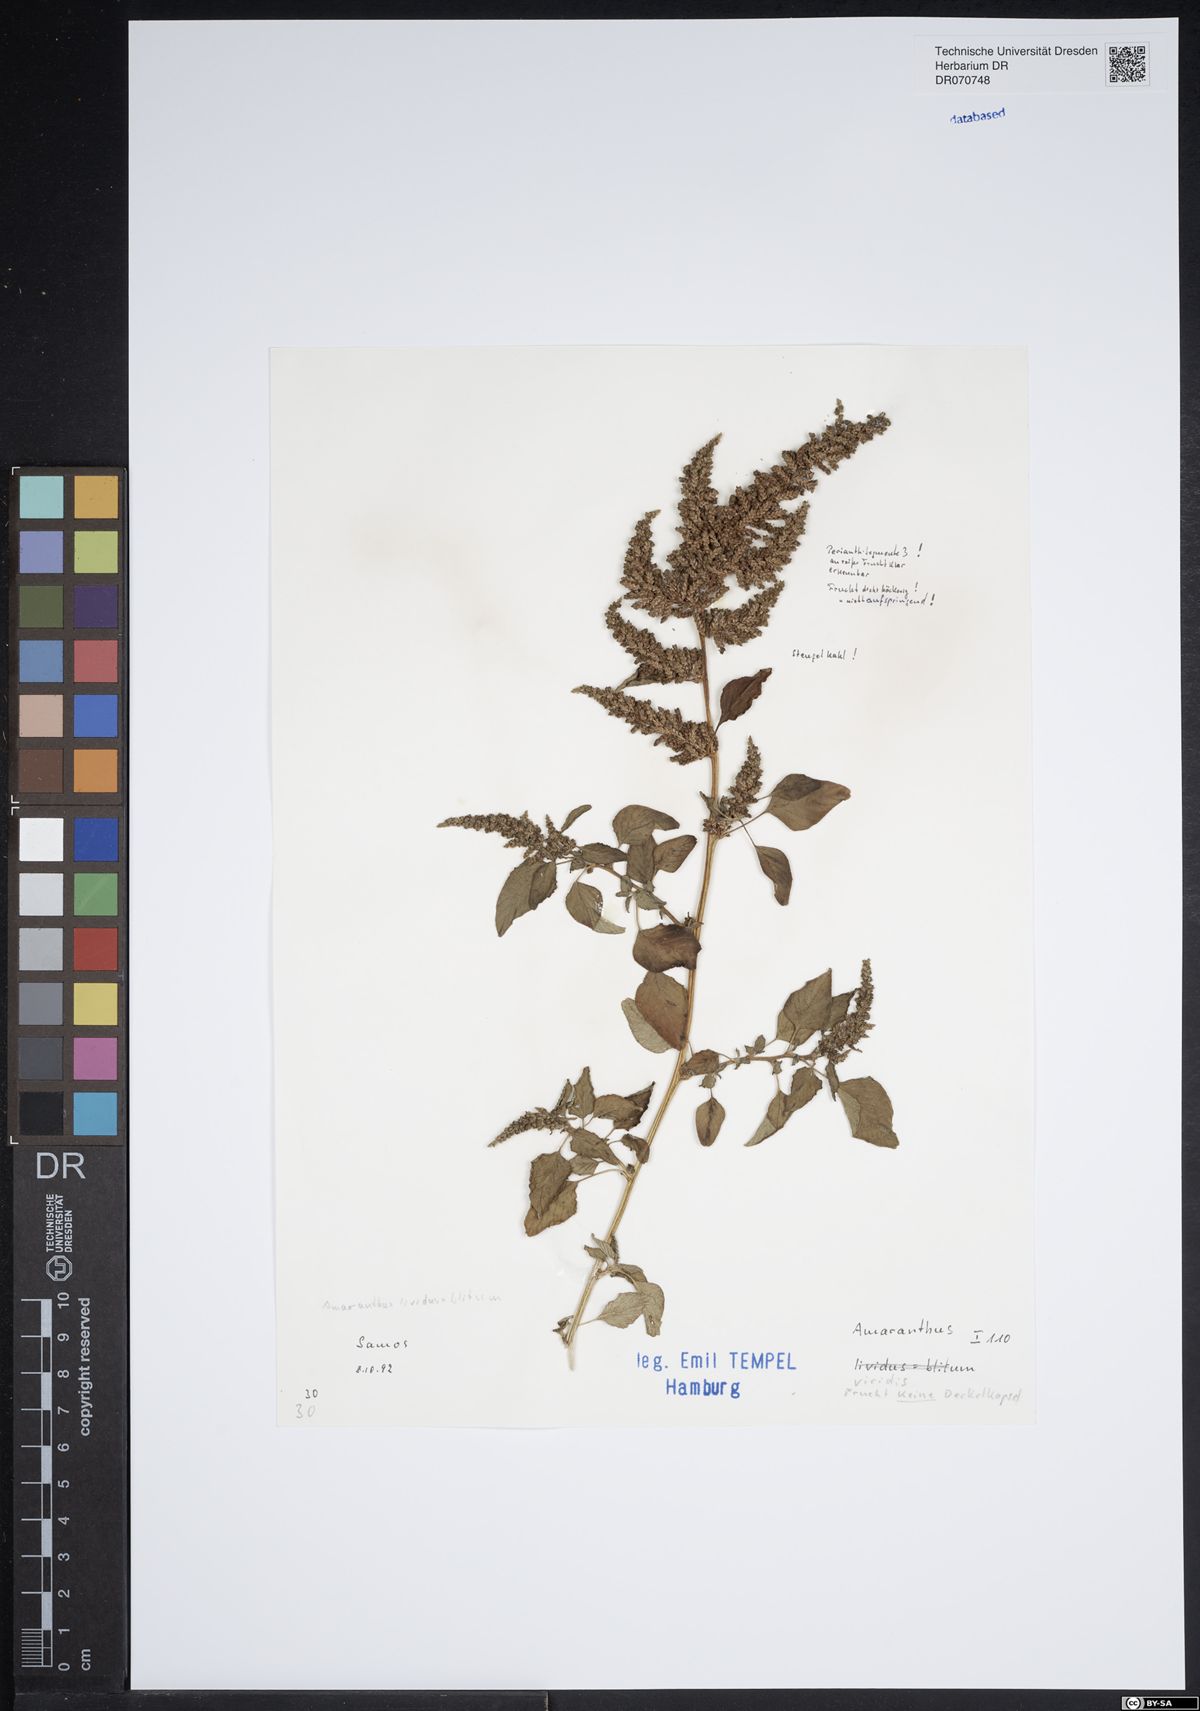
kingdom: Plantae
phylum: Tracheophyta
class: Magnoliopsida
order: Caryophyllales
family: Amaranthaceae
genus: Amaranthus
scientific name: Amaranthus viridis
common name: Slender amaranth
